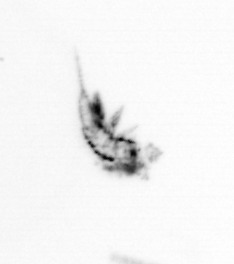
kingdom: Animalia
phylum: Arthropoda
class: Copepoda
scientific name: Copepoda
